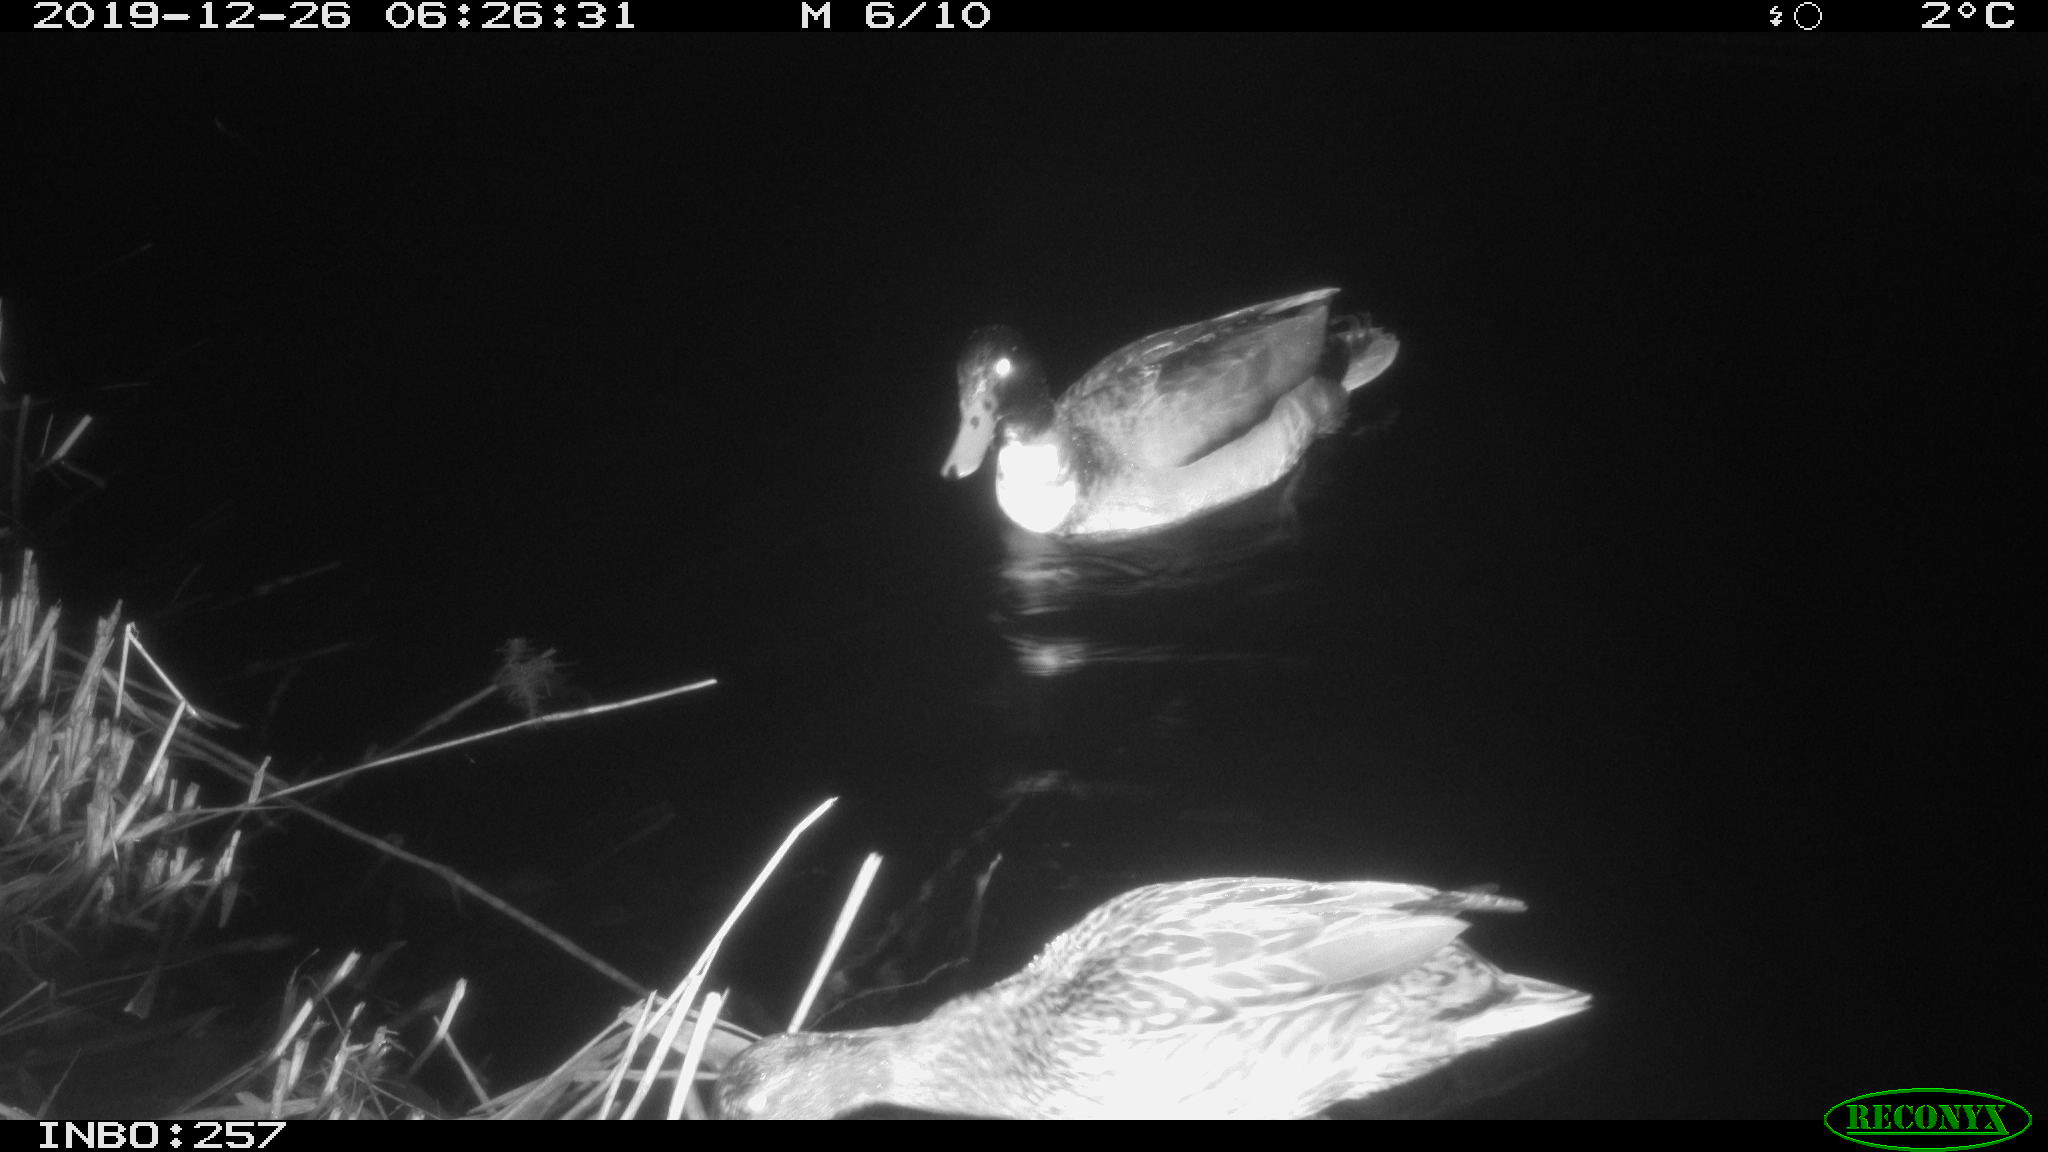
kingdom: Animalia
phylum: Chordata
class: Aves
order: Anseriformes
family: Anatidae
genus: Anas
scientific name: Anas platyrhynchos
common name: Mallard
